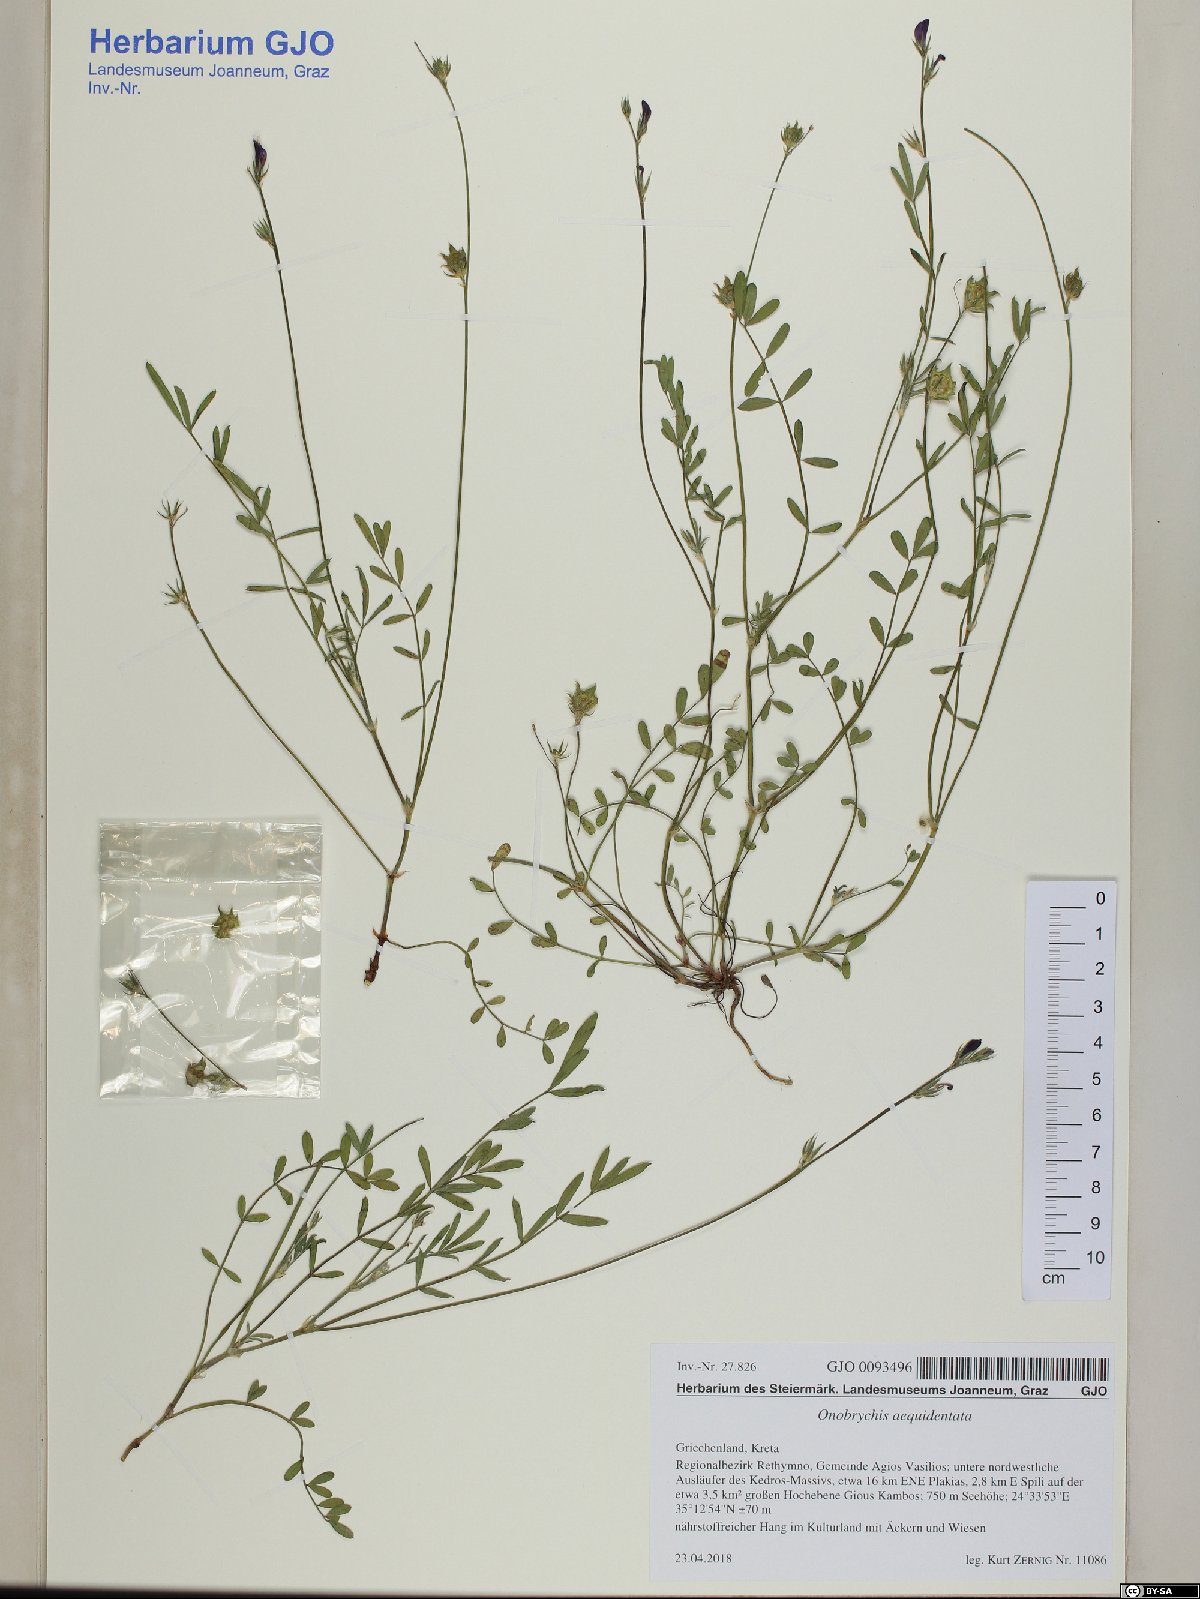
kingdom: Plantae
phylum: Tracheophyta
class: Magnoliopsida
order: Fabales
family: Fabaceae
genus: Onobrychis
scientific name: Onobrychis aequidentata
